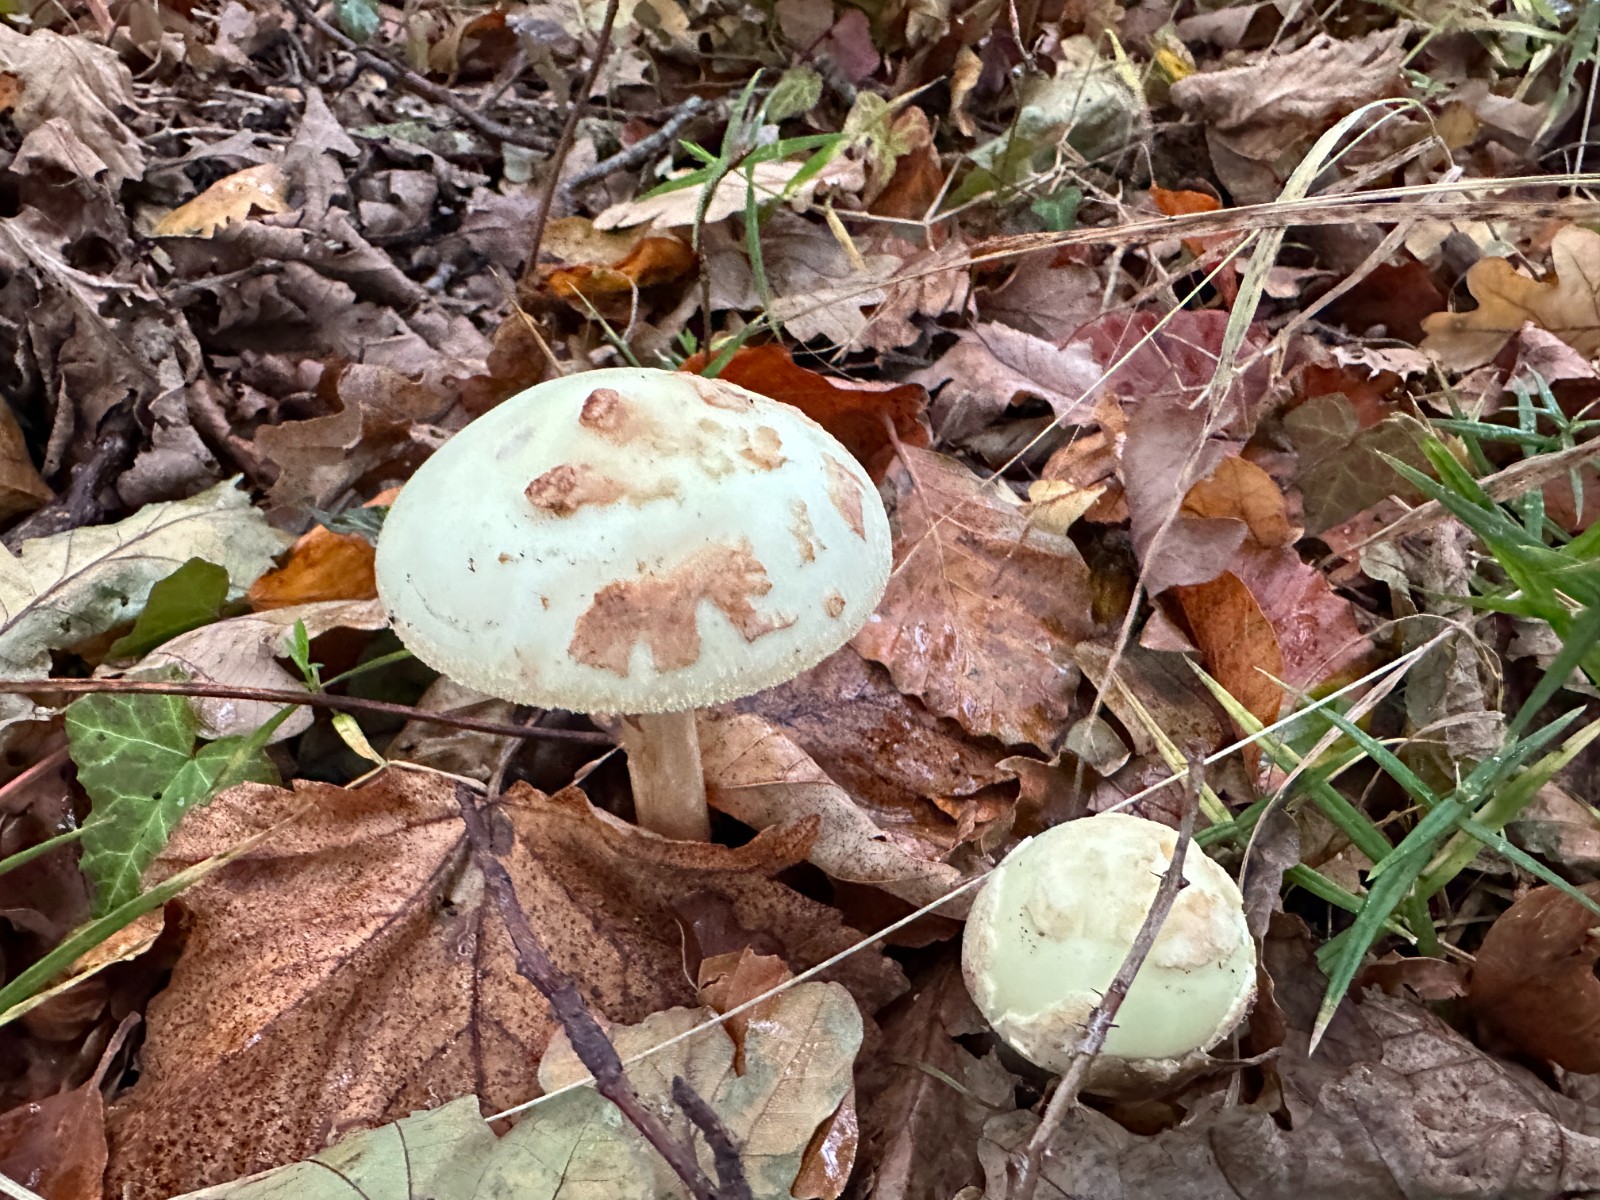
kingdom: Fungi
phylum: Basidiomycota
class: Agaricomycetes
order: Agaricales
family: Amanitaceae
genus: Amanita
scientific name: Amanita citrina
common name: kugleknoldet fluesvamp
